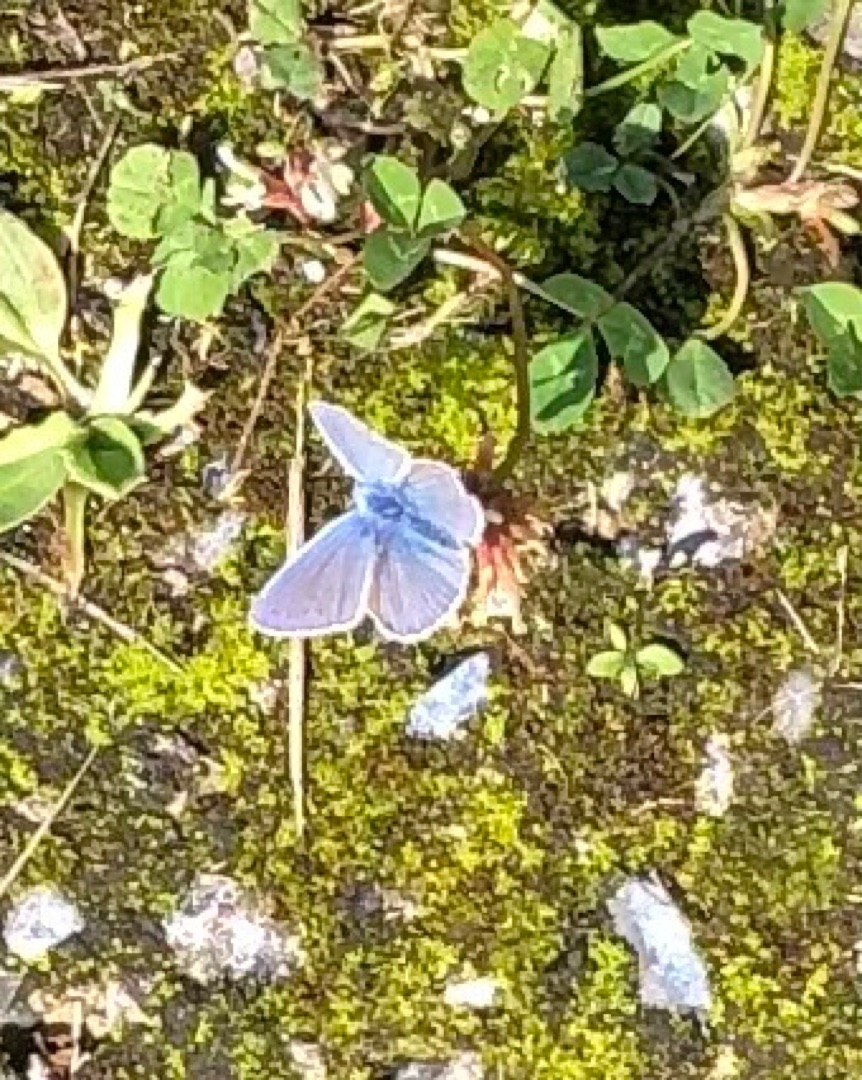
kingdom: Animalia
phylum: Arthropoda
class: Insecta
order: Lepidoptera
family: Lycaenidae
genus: Polyommatus
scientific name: Polyommatus icarus
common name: Almindelig blåfugl
